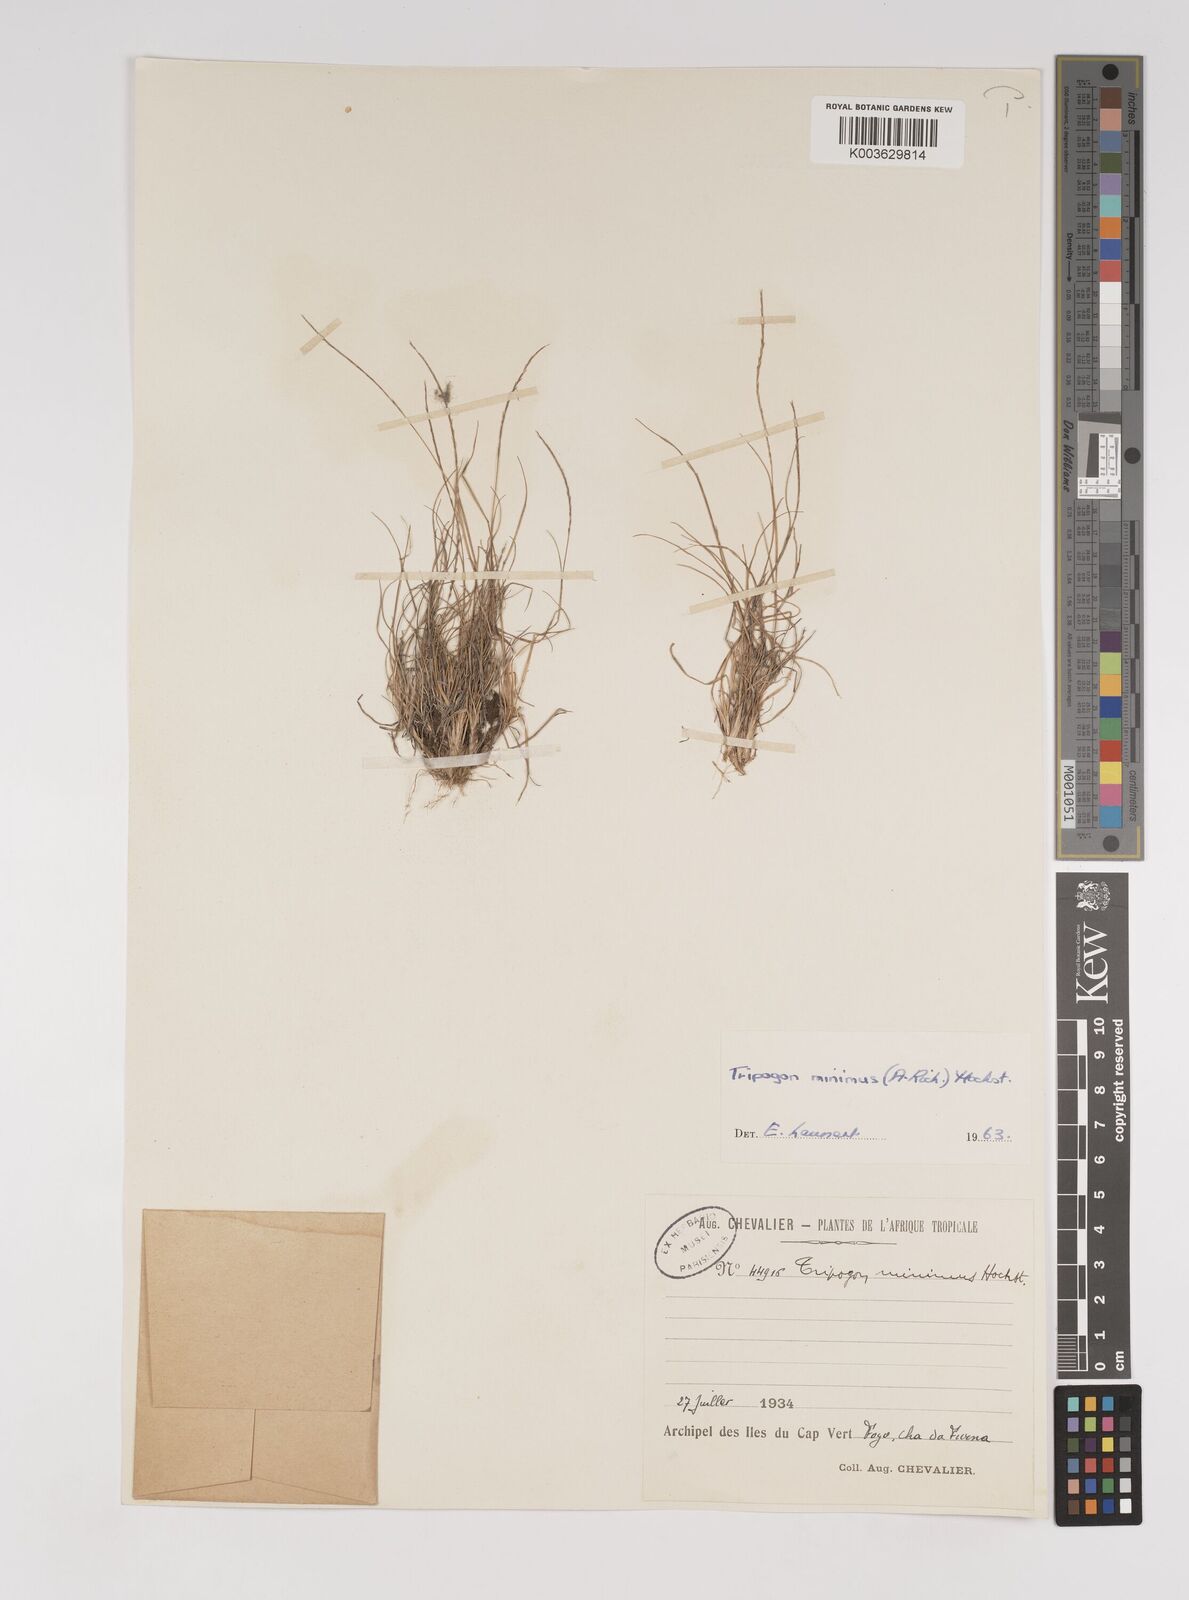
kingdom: Plantae
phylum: Tracheophyta
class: Liliopsida
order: Poales
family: Poaceae
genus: Tripogonella
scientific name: Tripogonella minima
